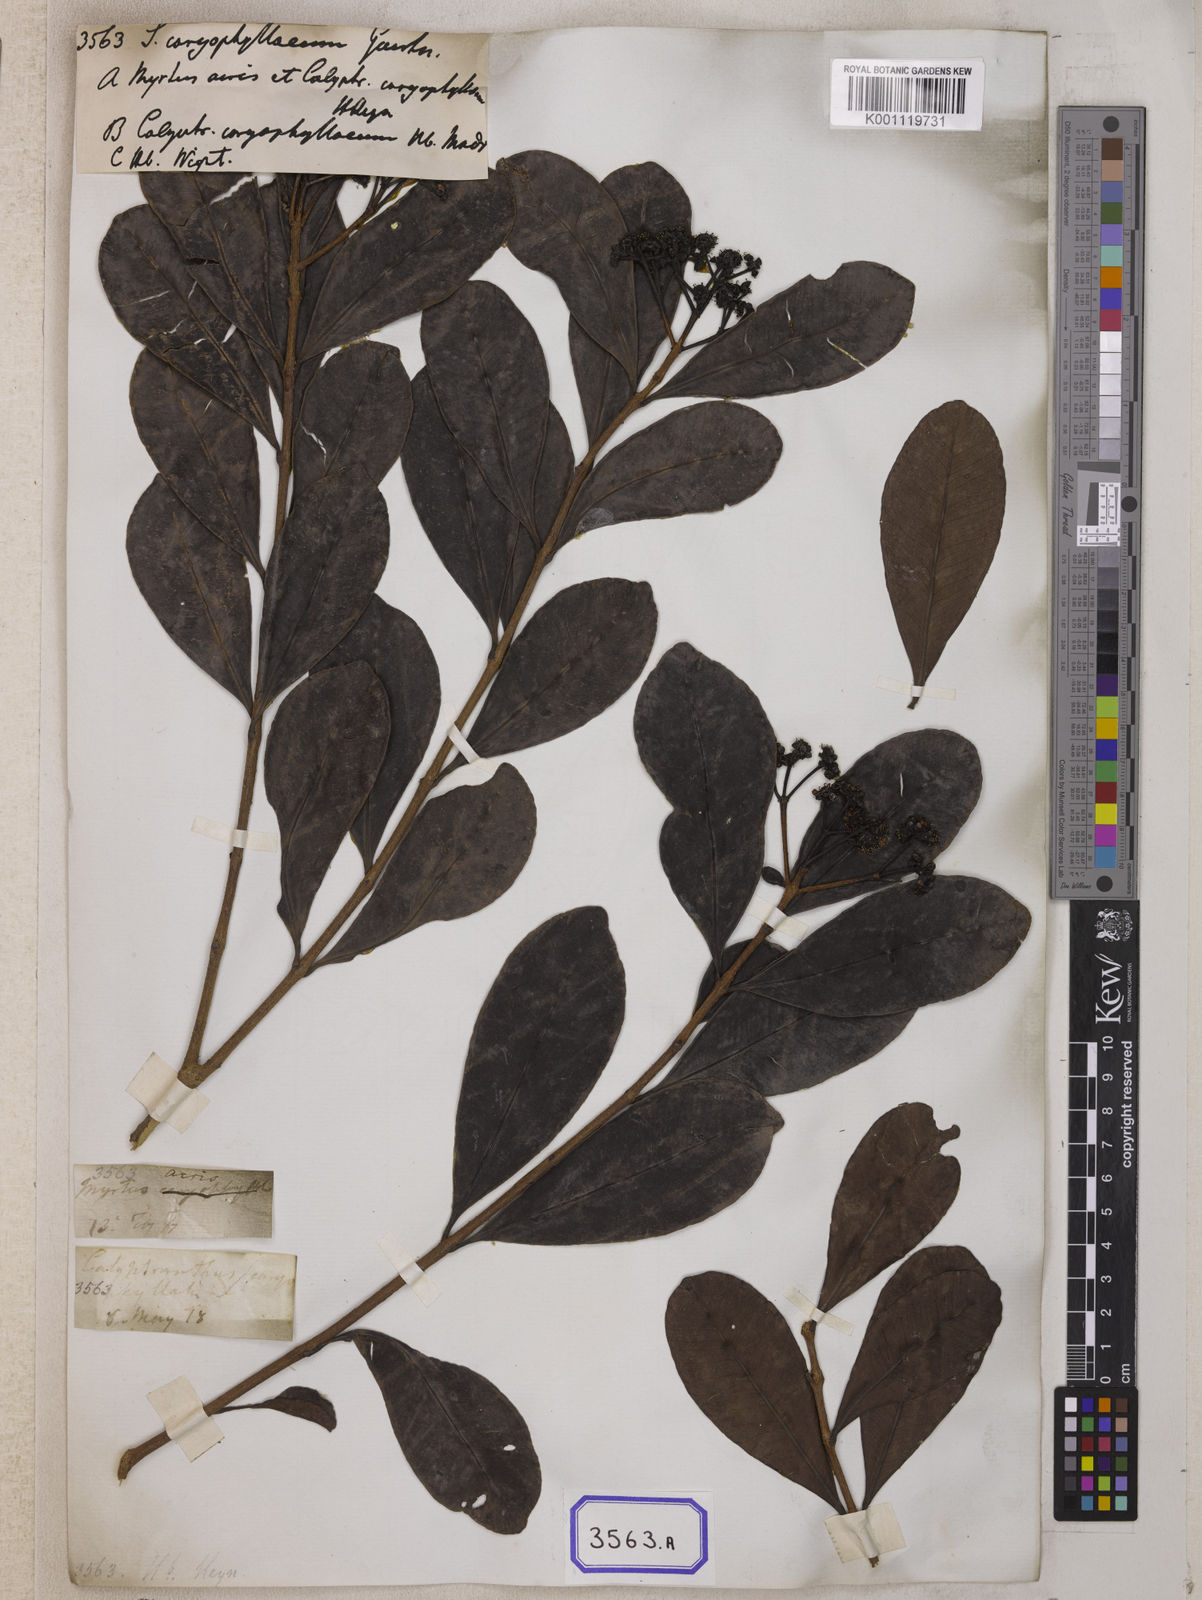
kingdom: Plantae
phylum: Tracheophyta
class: Magnoliopsida
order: Myrtales
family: Myrtaceae
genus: Syzygium
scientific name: Syzygium caryophyllatum
